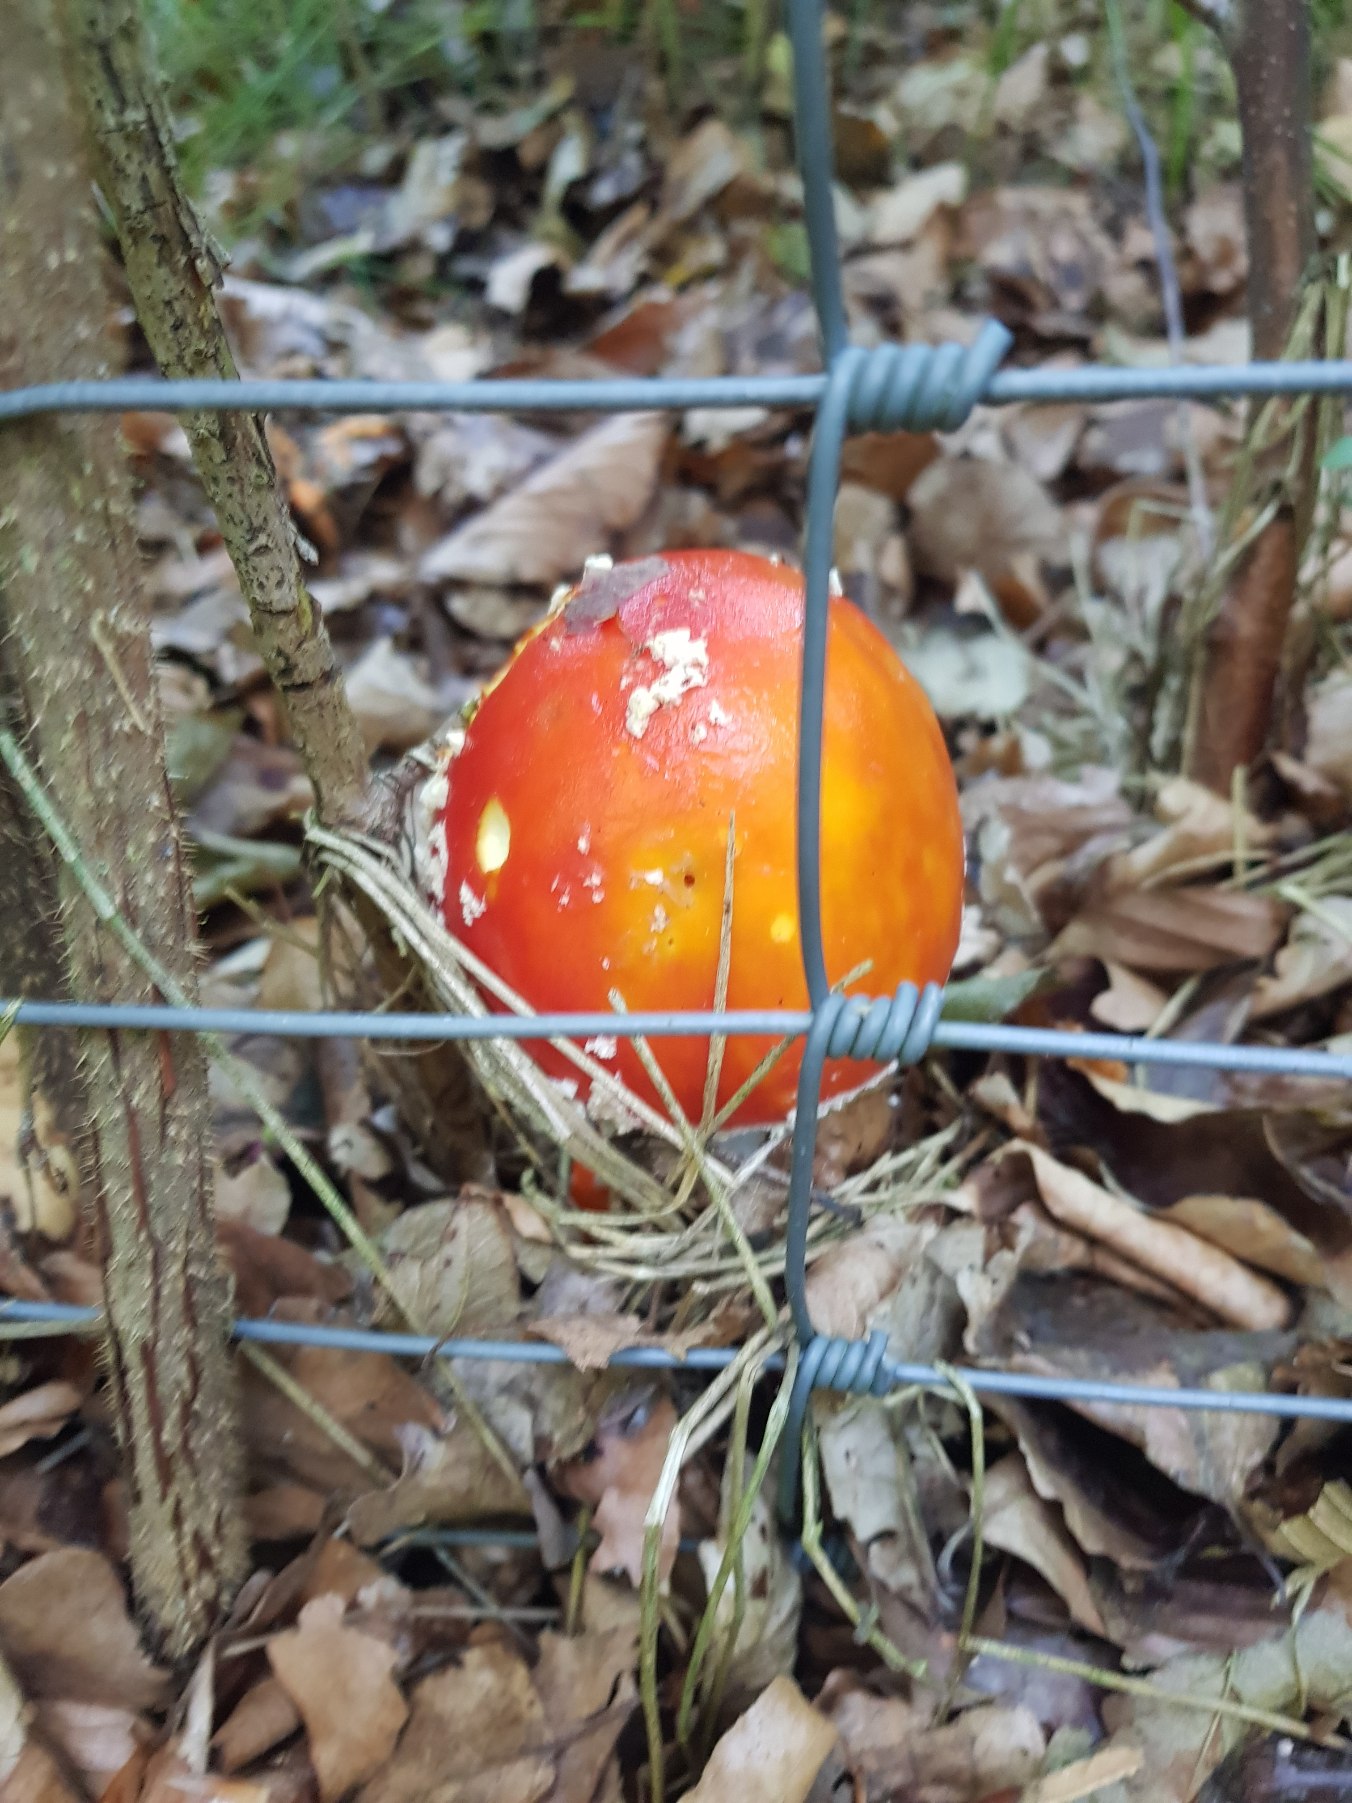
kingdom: Fungi
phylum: Basidiomycota
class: Agaricomycetes
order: Agaricales
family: Amanitaceae
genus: Amanita
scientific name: Amanita muscaria
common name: Rød fluesvamp
